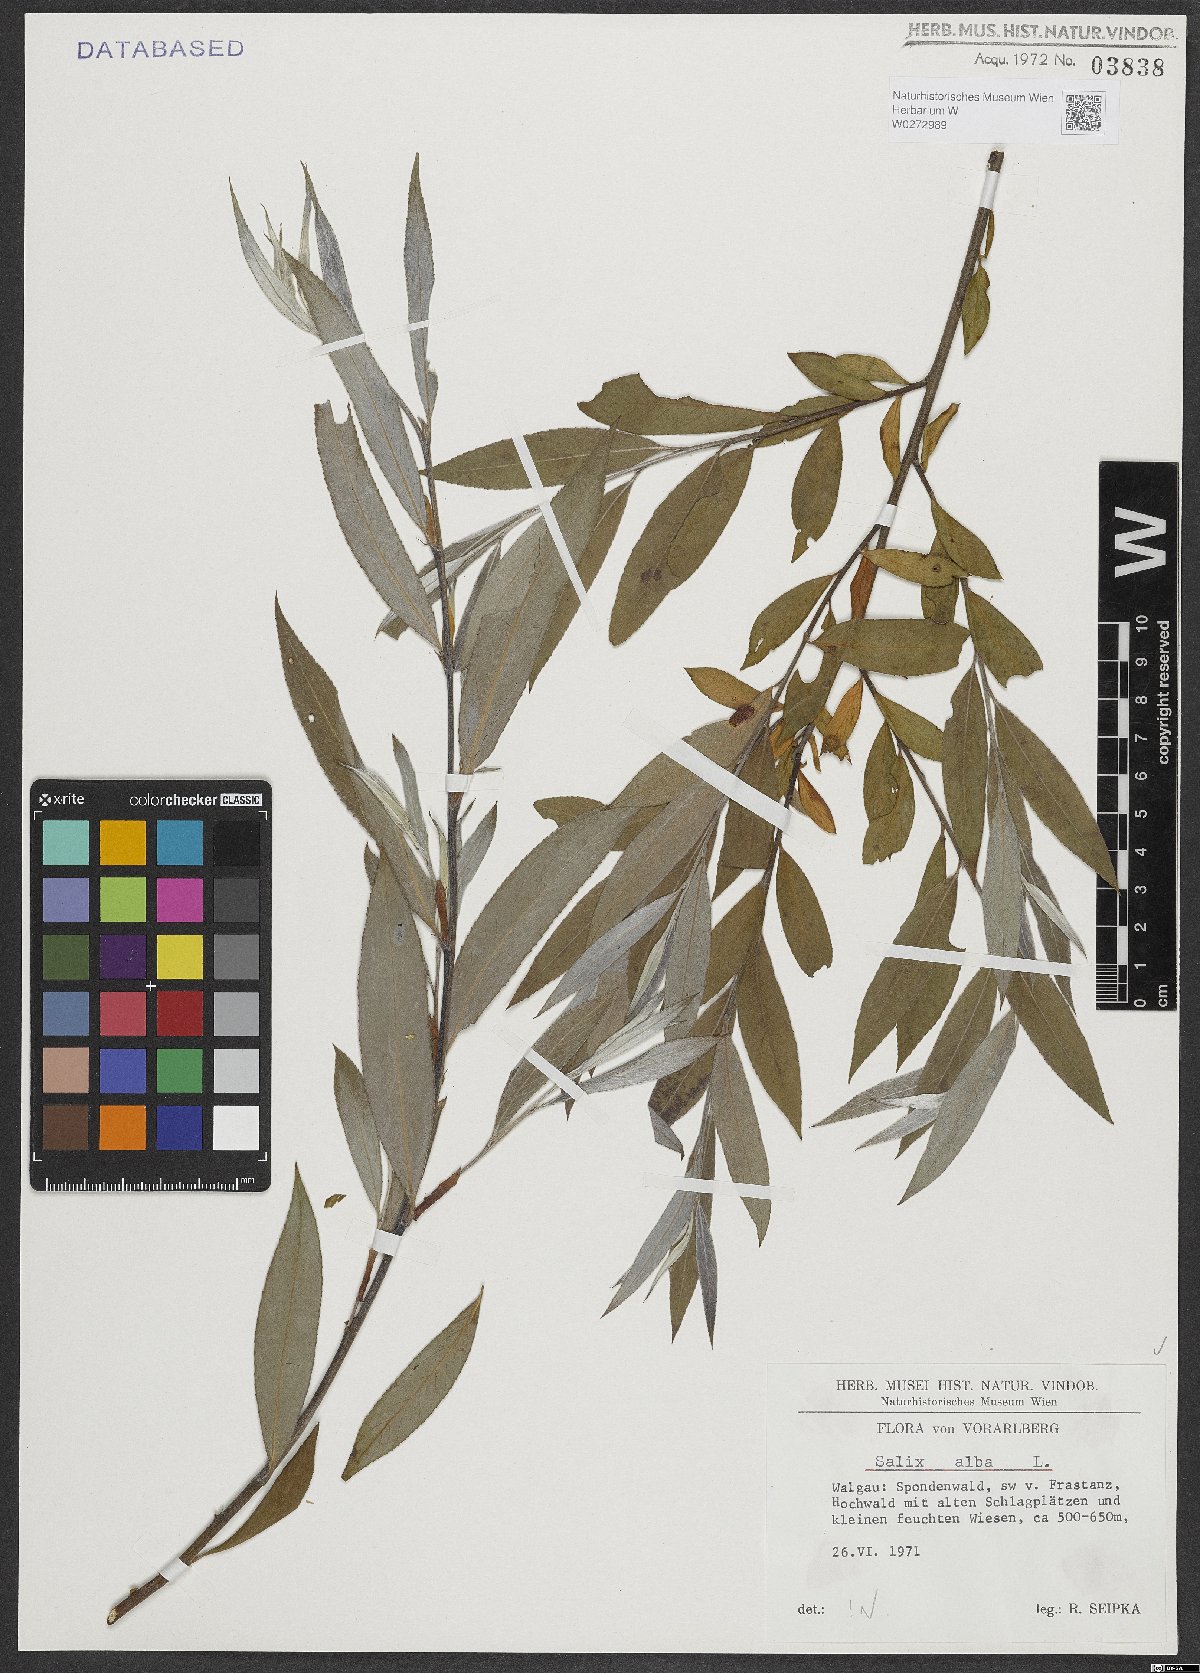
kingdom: Plantae
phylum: Tracheophyta
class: Magnoliopsida
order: Malpighiales
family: Salicaceae
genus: Salix
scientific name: Salix alba
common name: White willow
